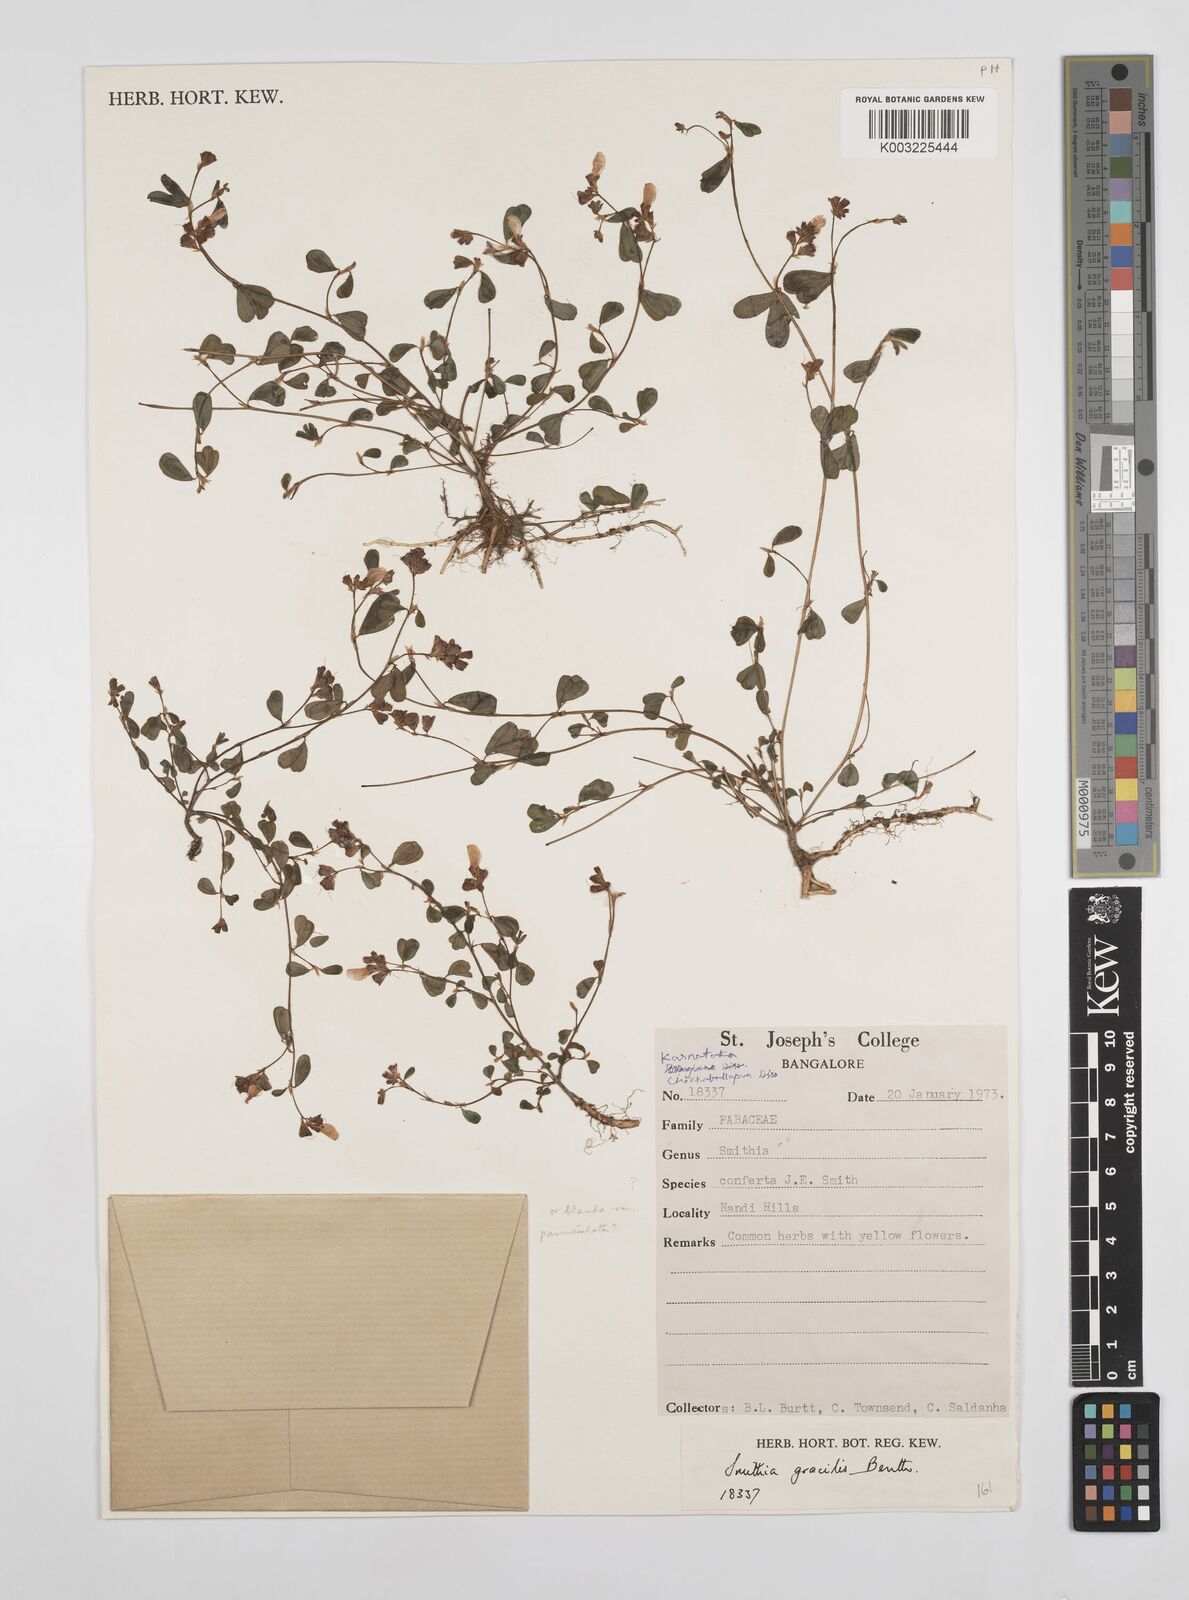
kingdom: Plantae
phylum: Tracheophyta
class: Magnoliopsida
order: Fabales
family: Fabaceae
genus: Smithia
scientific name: Smithia gracilis
